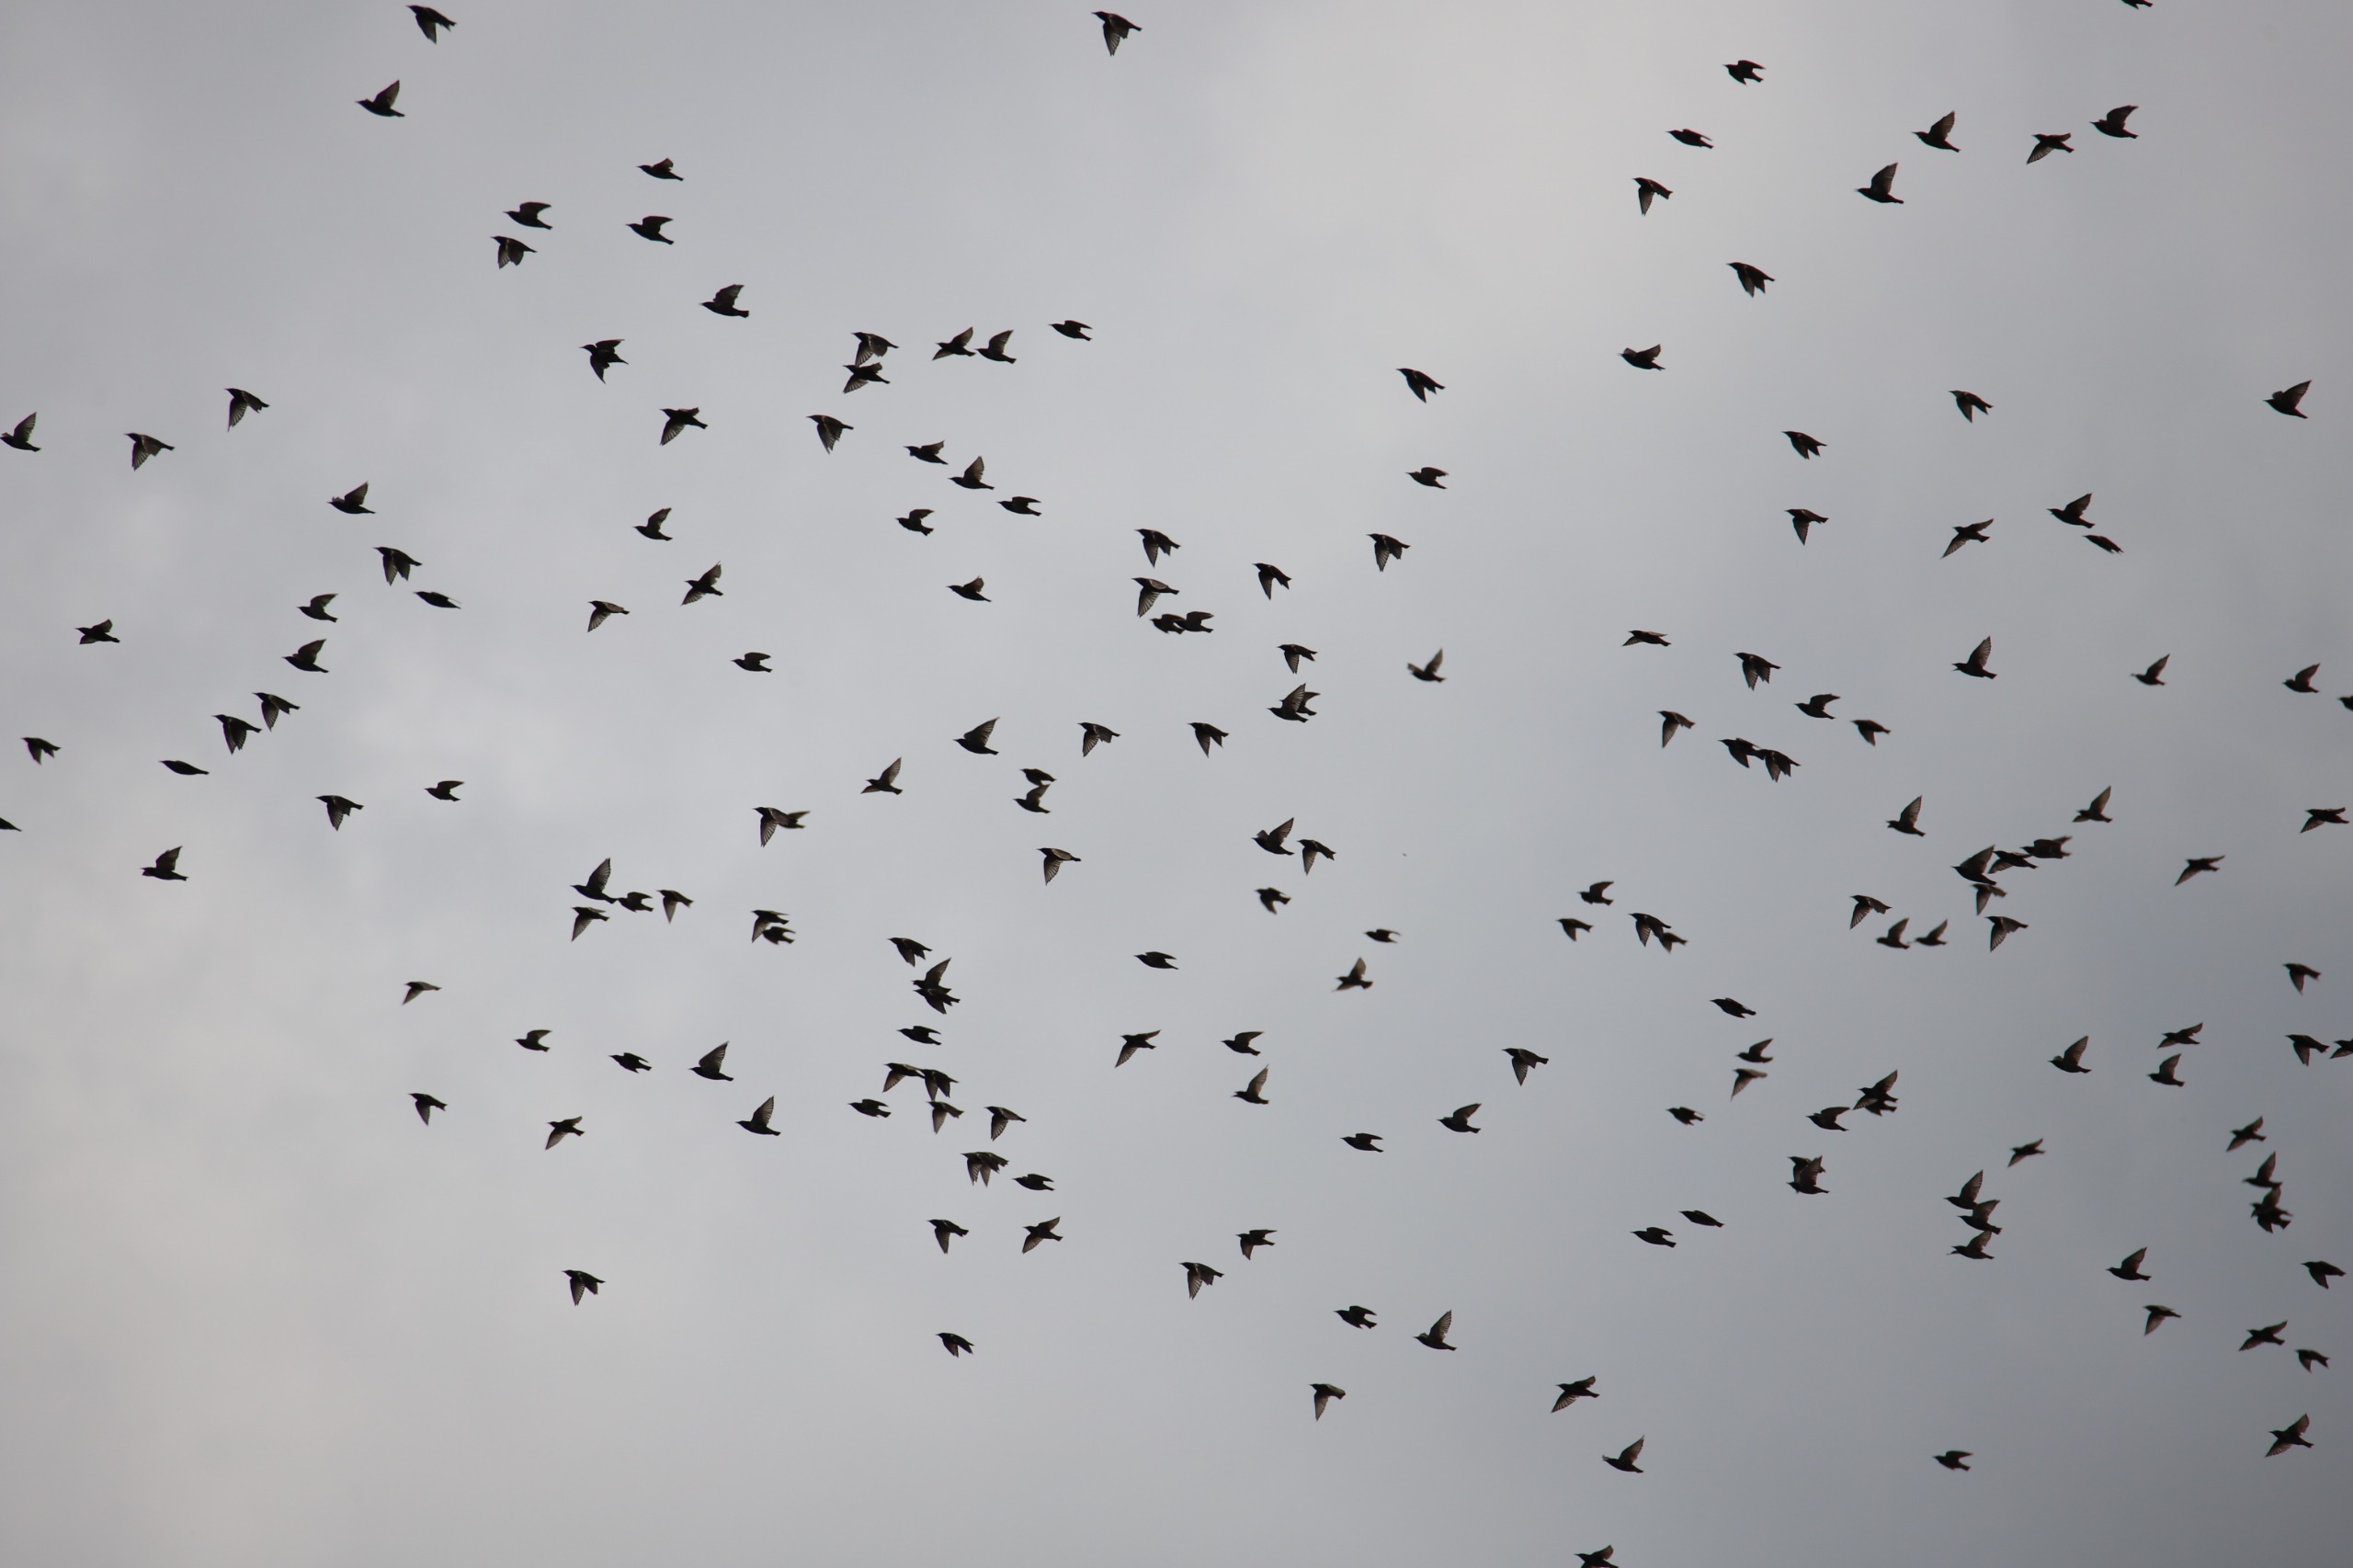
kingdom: Animalia
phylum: Chordata
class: Aves
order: Passeriformes
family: Sturnidae
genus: Sturnus
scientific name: Sturnus vulgaris
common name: Stær
